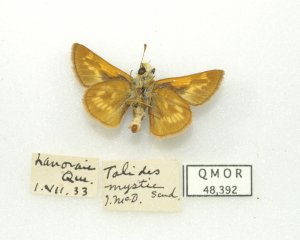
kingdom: Animalia
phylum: Arthropoda
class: Insecta
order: Lepidoptera
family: Hesperiidae
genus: Polites
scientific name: Polites
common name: Long Dash Skipper
